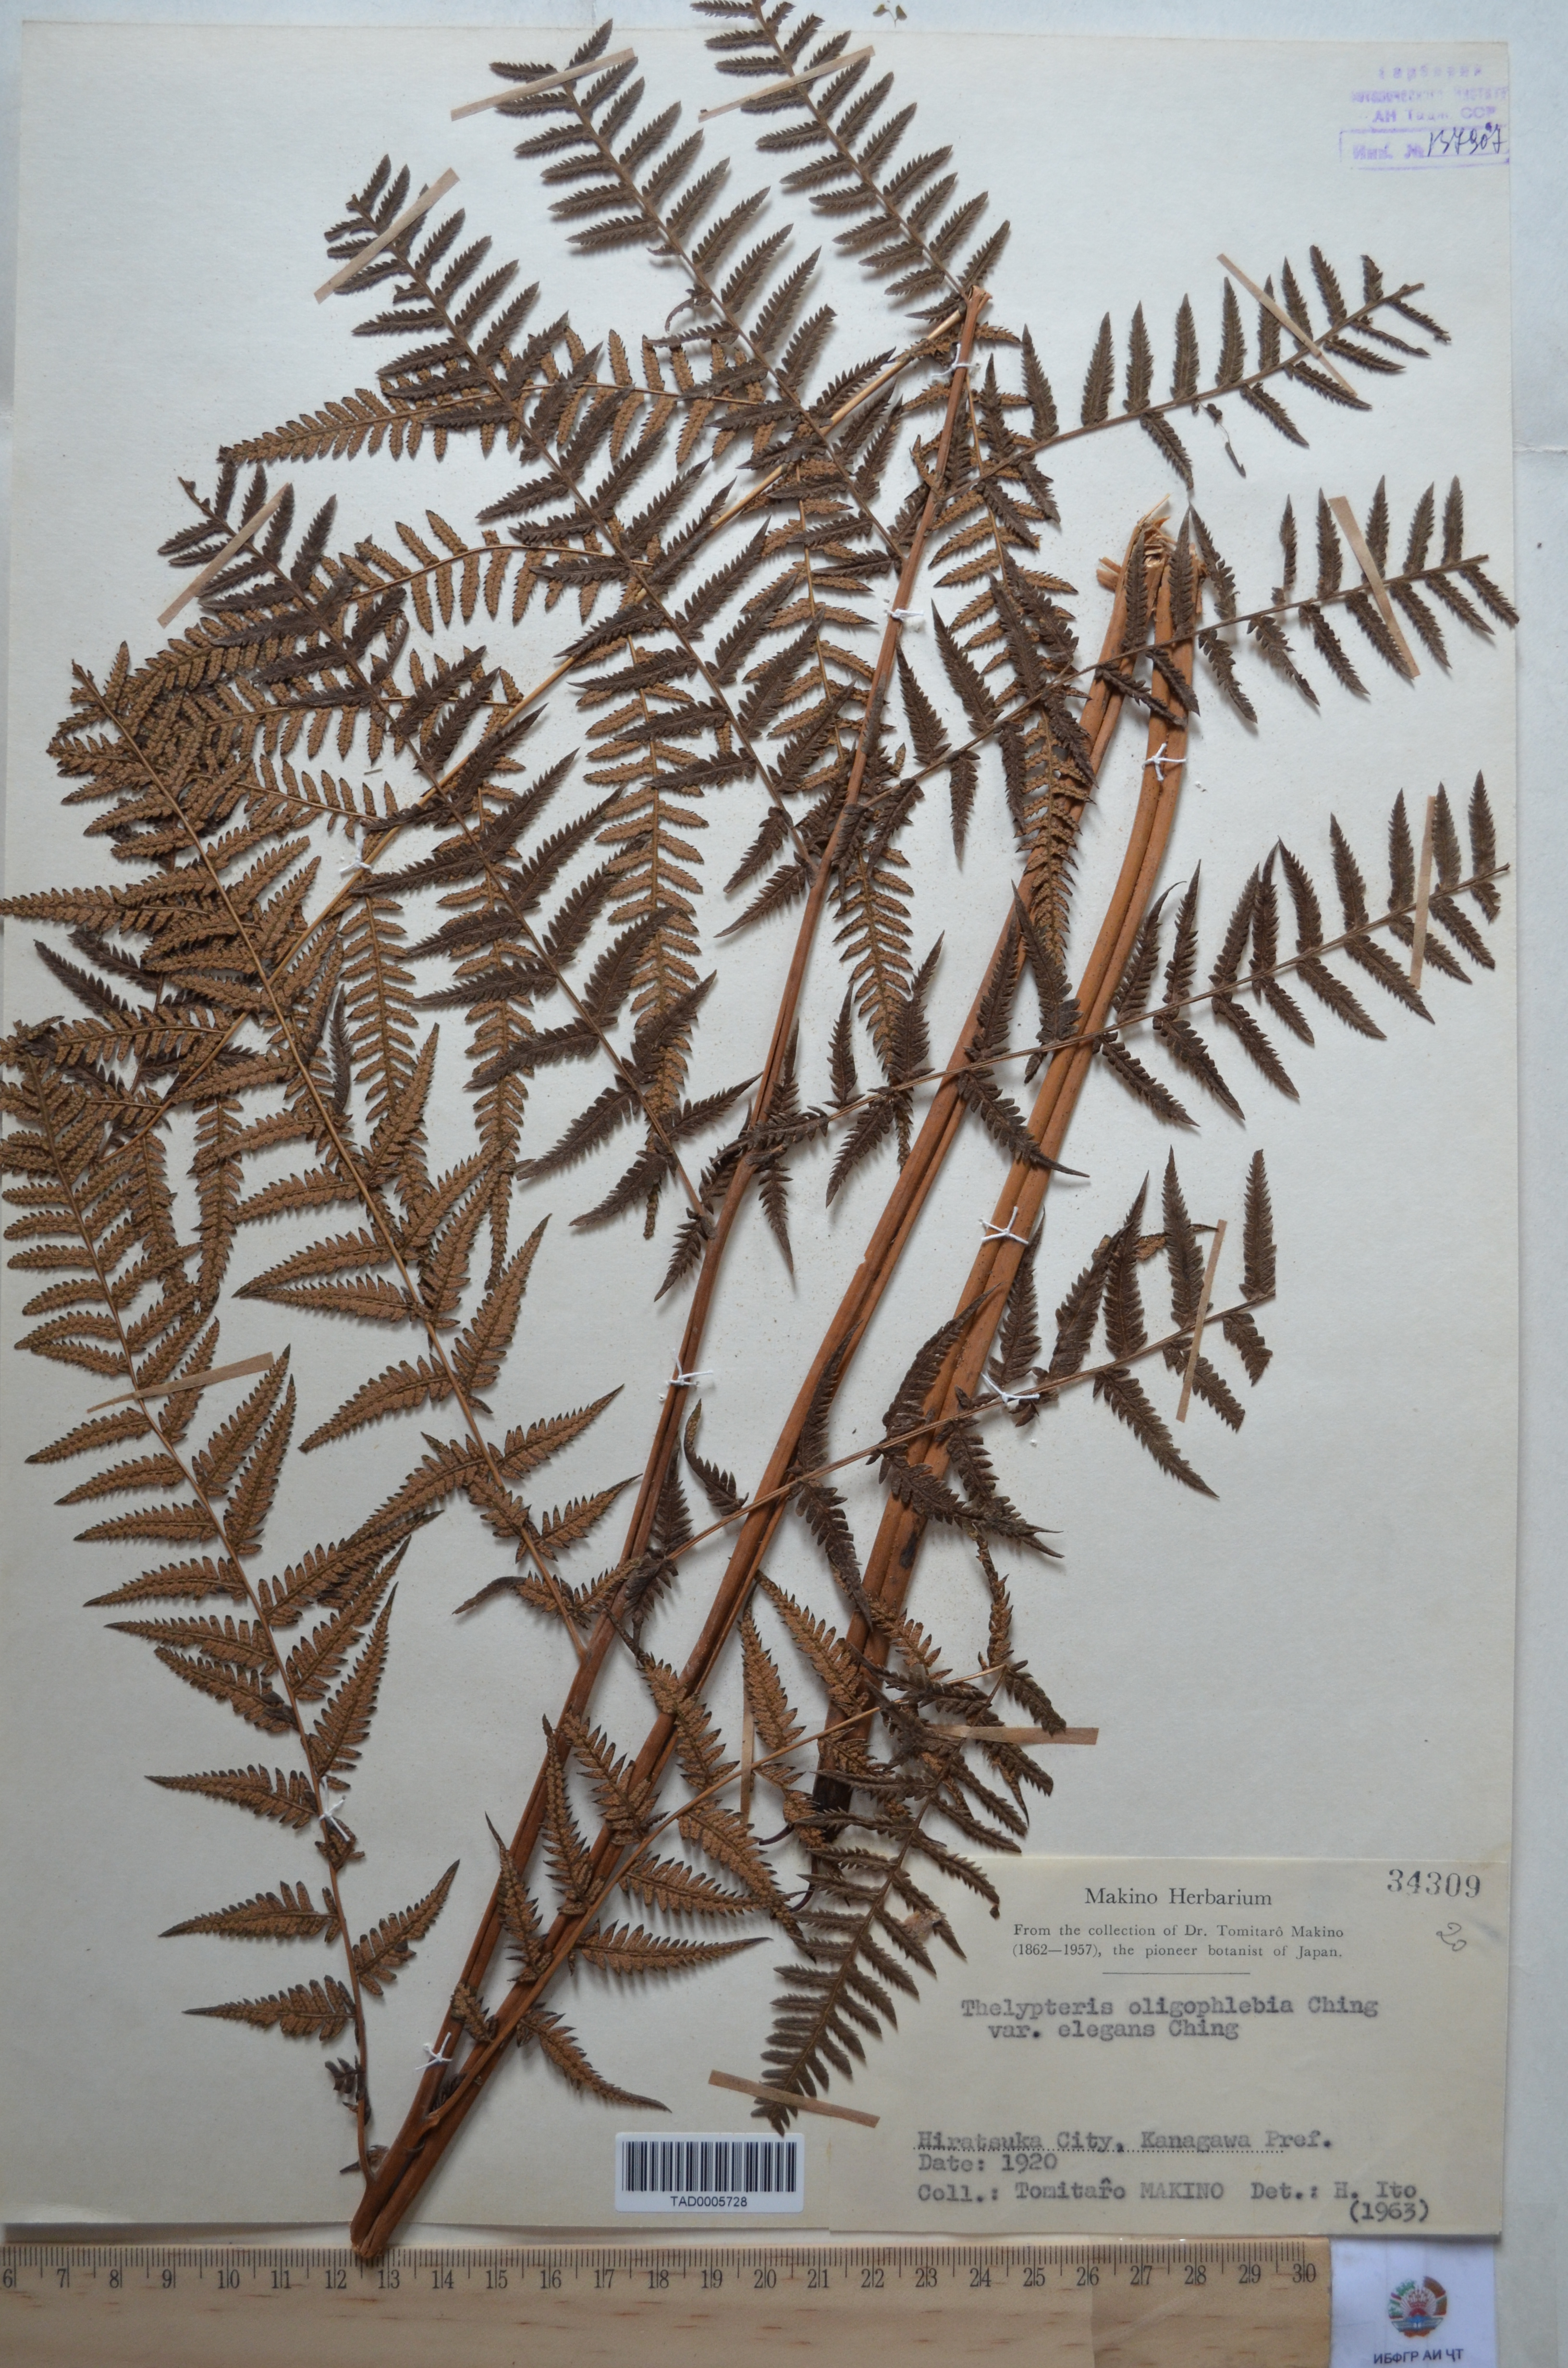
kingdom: Plantae
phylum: Tracheophyta
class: Polypodiopsida
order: Polypodiales
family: Thelypteridaceae
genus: Coryphopteris
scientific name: Coryphopteris nipponica
